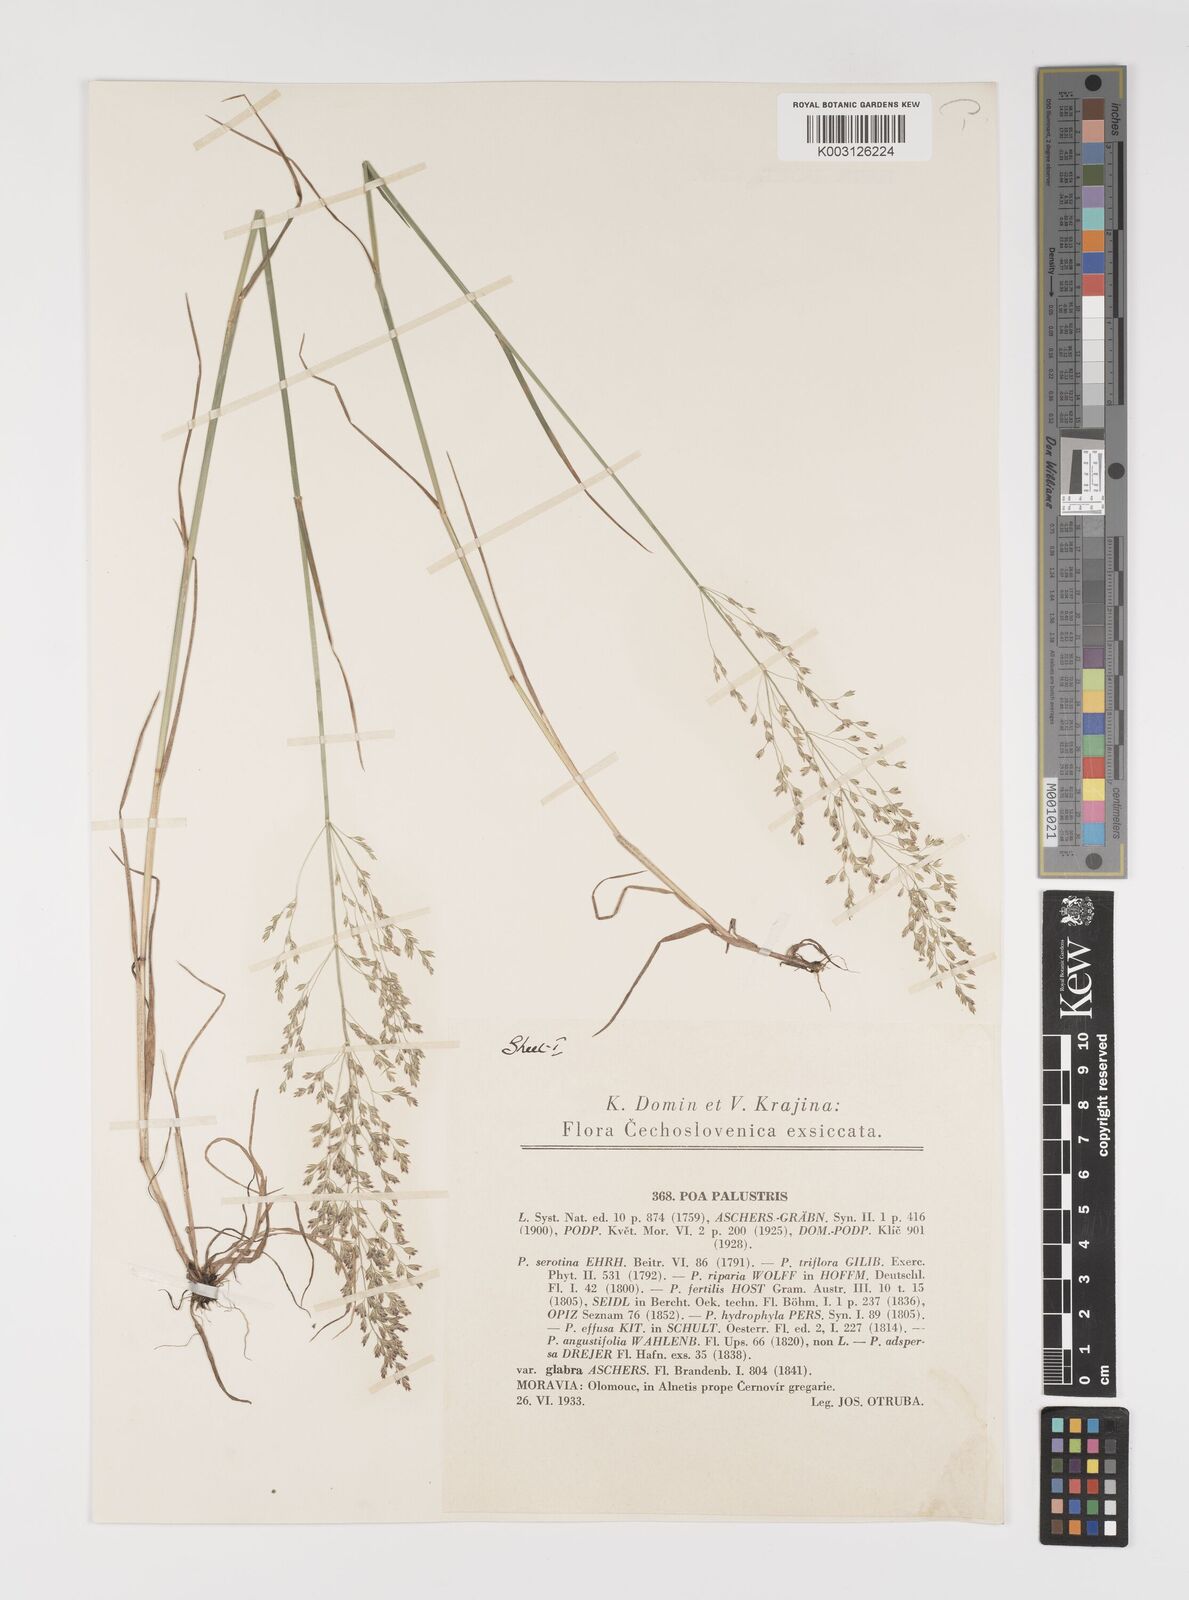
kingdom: Plantae
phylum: Tracheophyta
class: Liliopsida
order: Poales
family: Poaceae
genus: Poa
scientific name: Poa palustris
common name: Swamp meadow-grass
